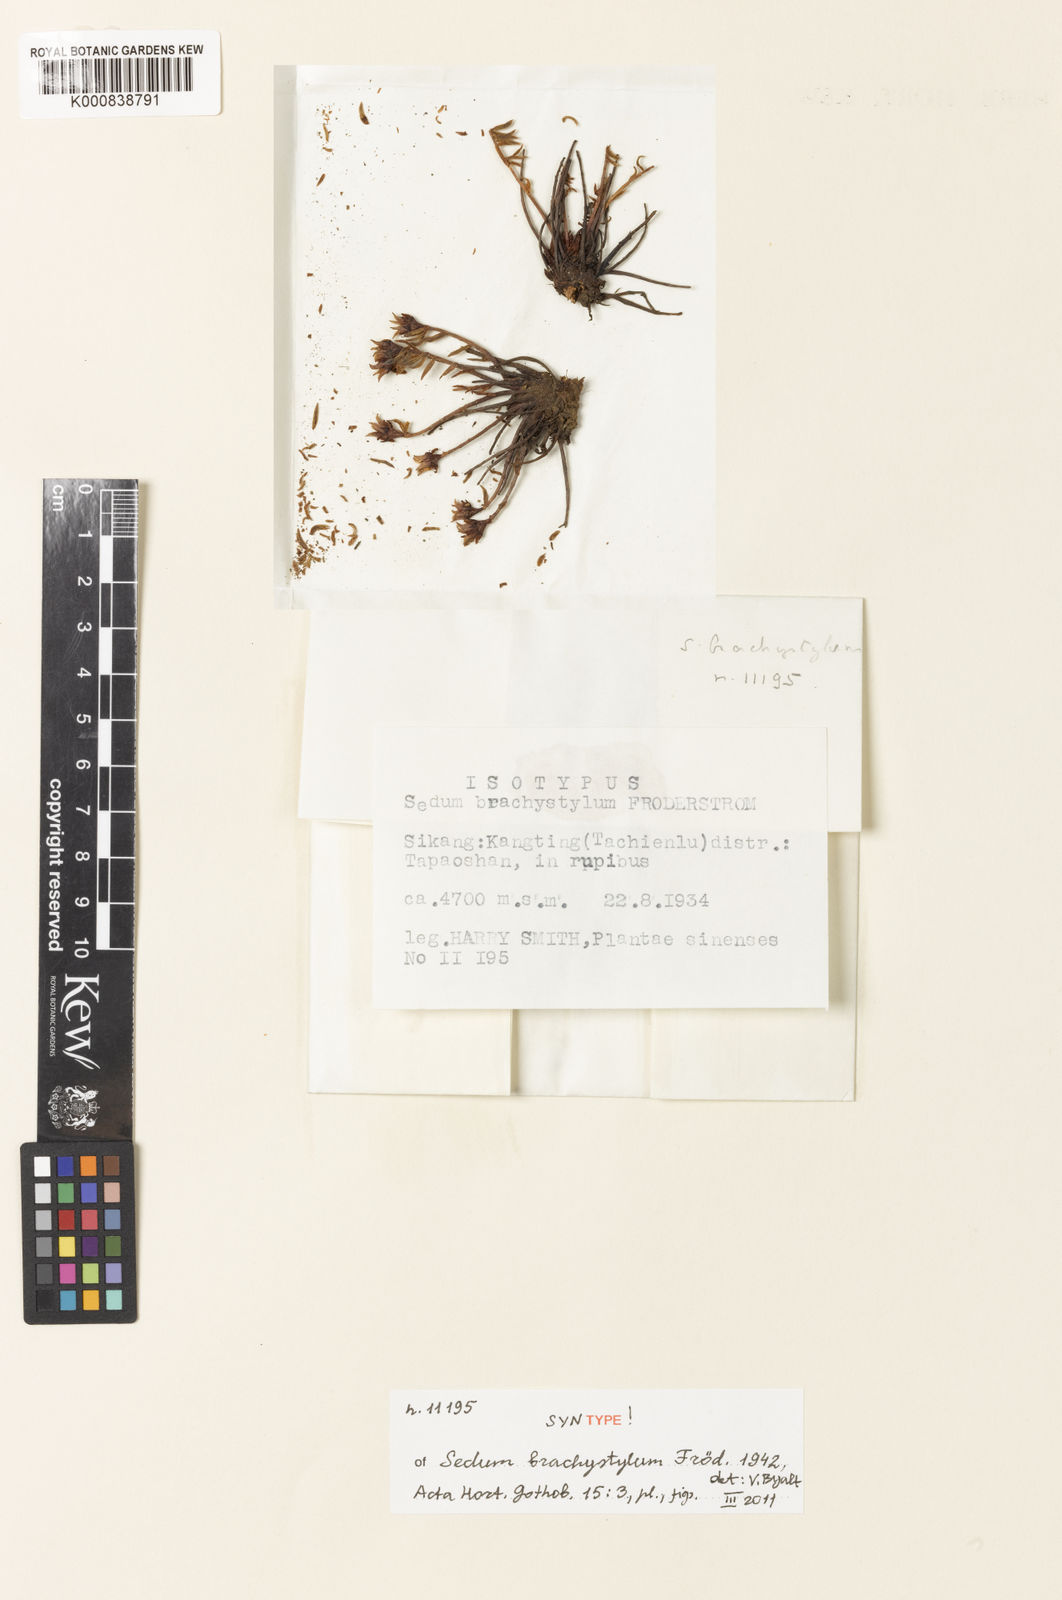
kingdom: Plantae
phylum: Tracheophyta
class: Magnoliopsida
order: Saxifragales
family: Crassulaceae
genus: Sedum
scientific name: Sedum
